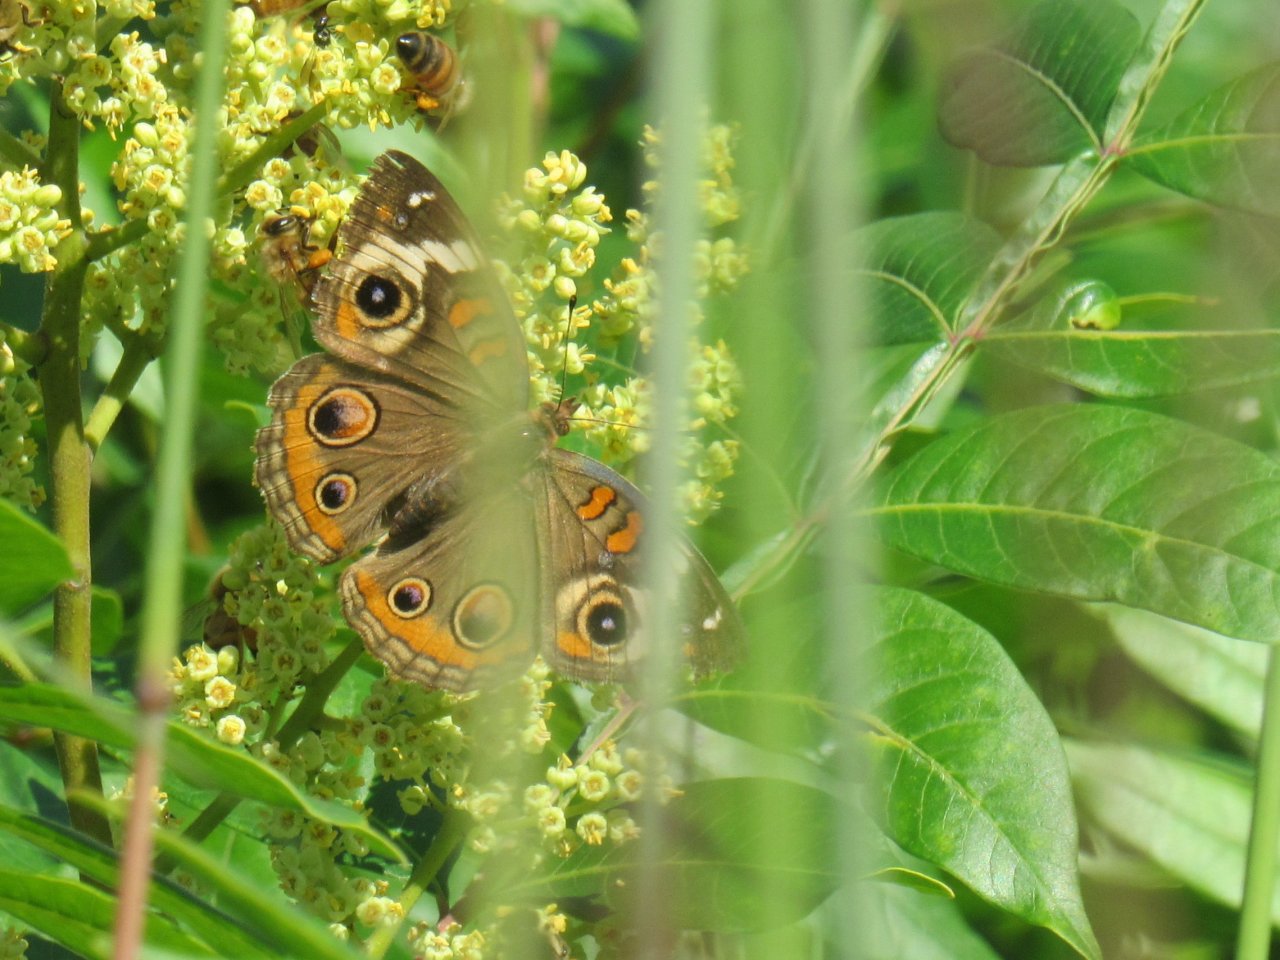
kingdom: Animalia
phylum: Arthropoda
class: Insecta
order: Lepidoptera
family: Nymphalidae
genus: Junonia
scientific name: Junonia coenia
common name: Common Buckeye
